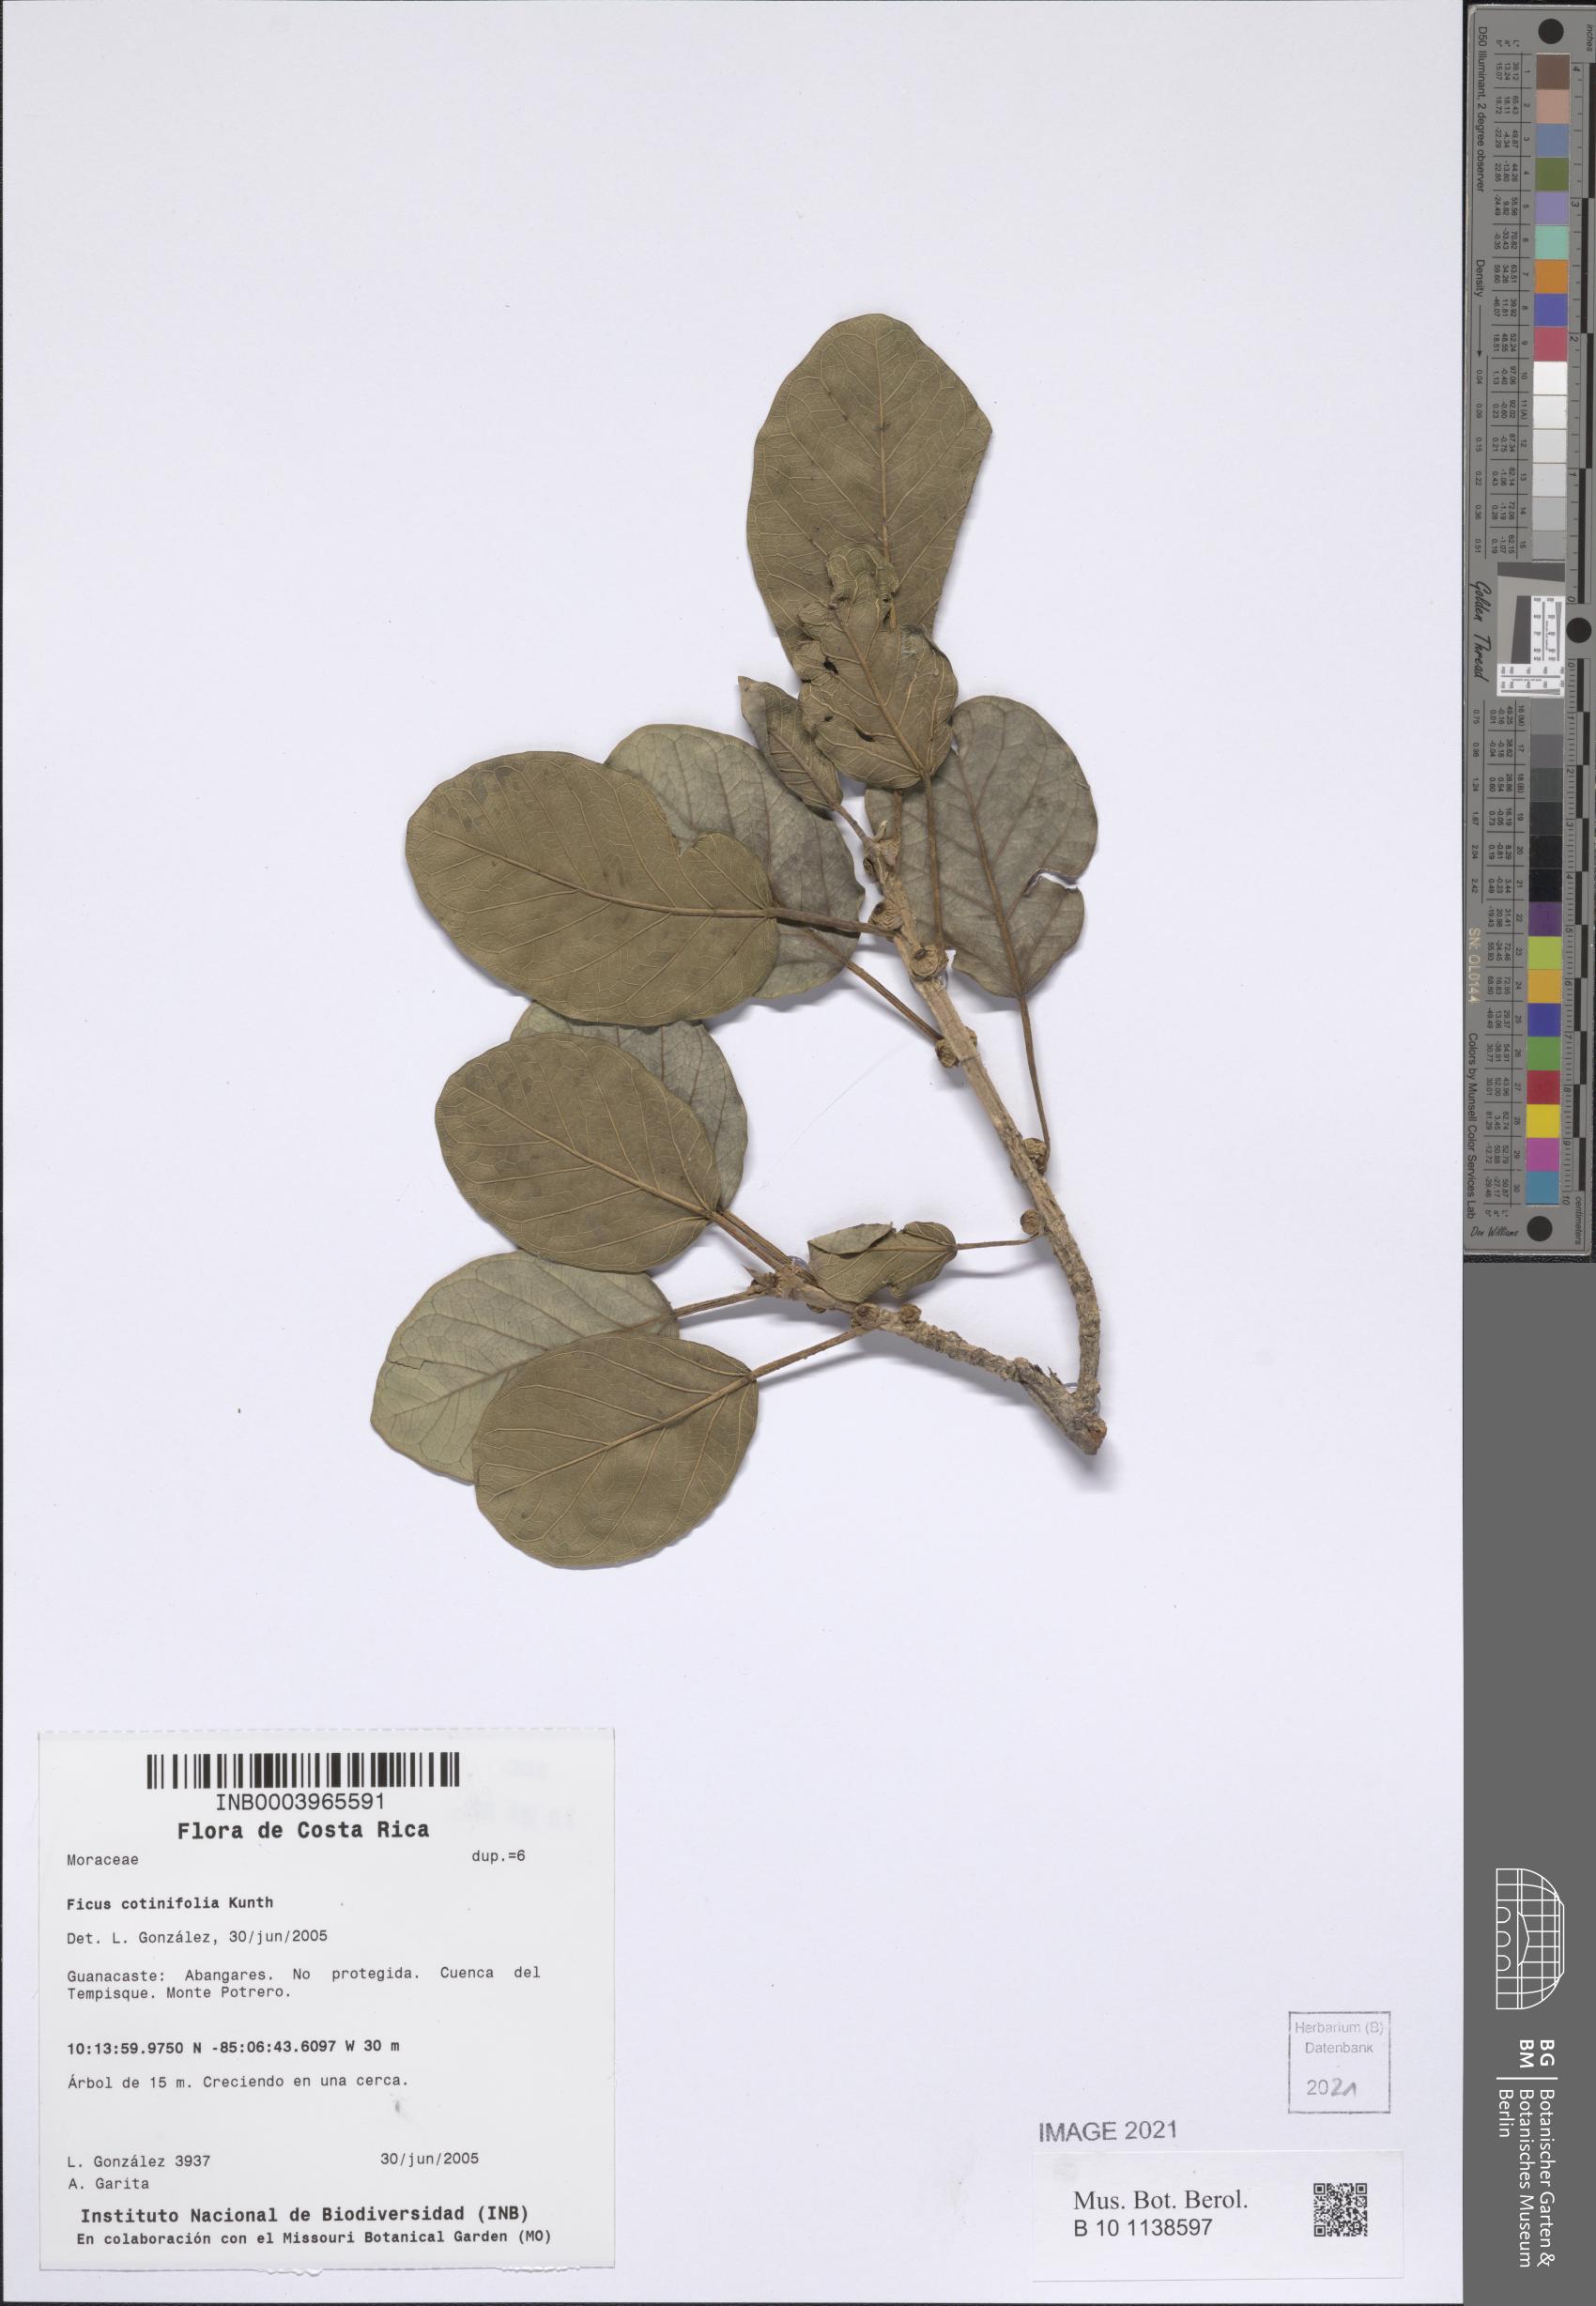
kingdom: Plantae
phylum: Tracheophyta
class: Magnoliopsida
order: Rosales
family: Moraceae
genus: Ficus
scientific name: Ficus cotinifolia
